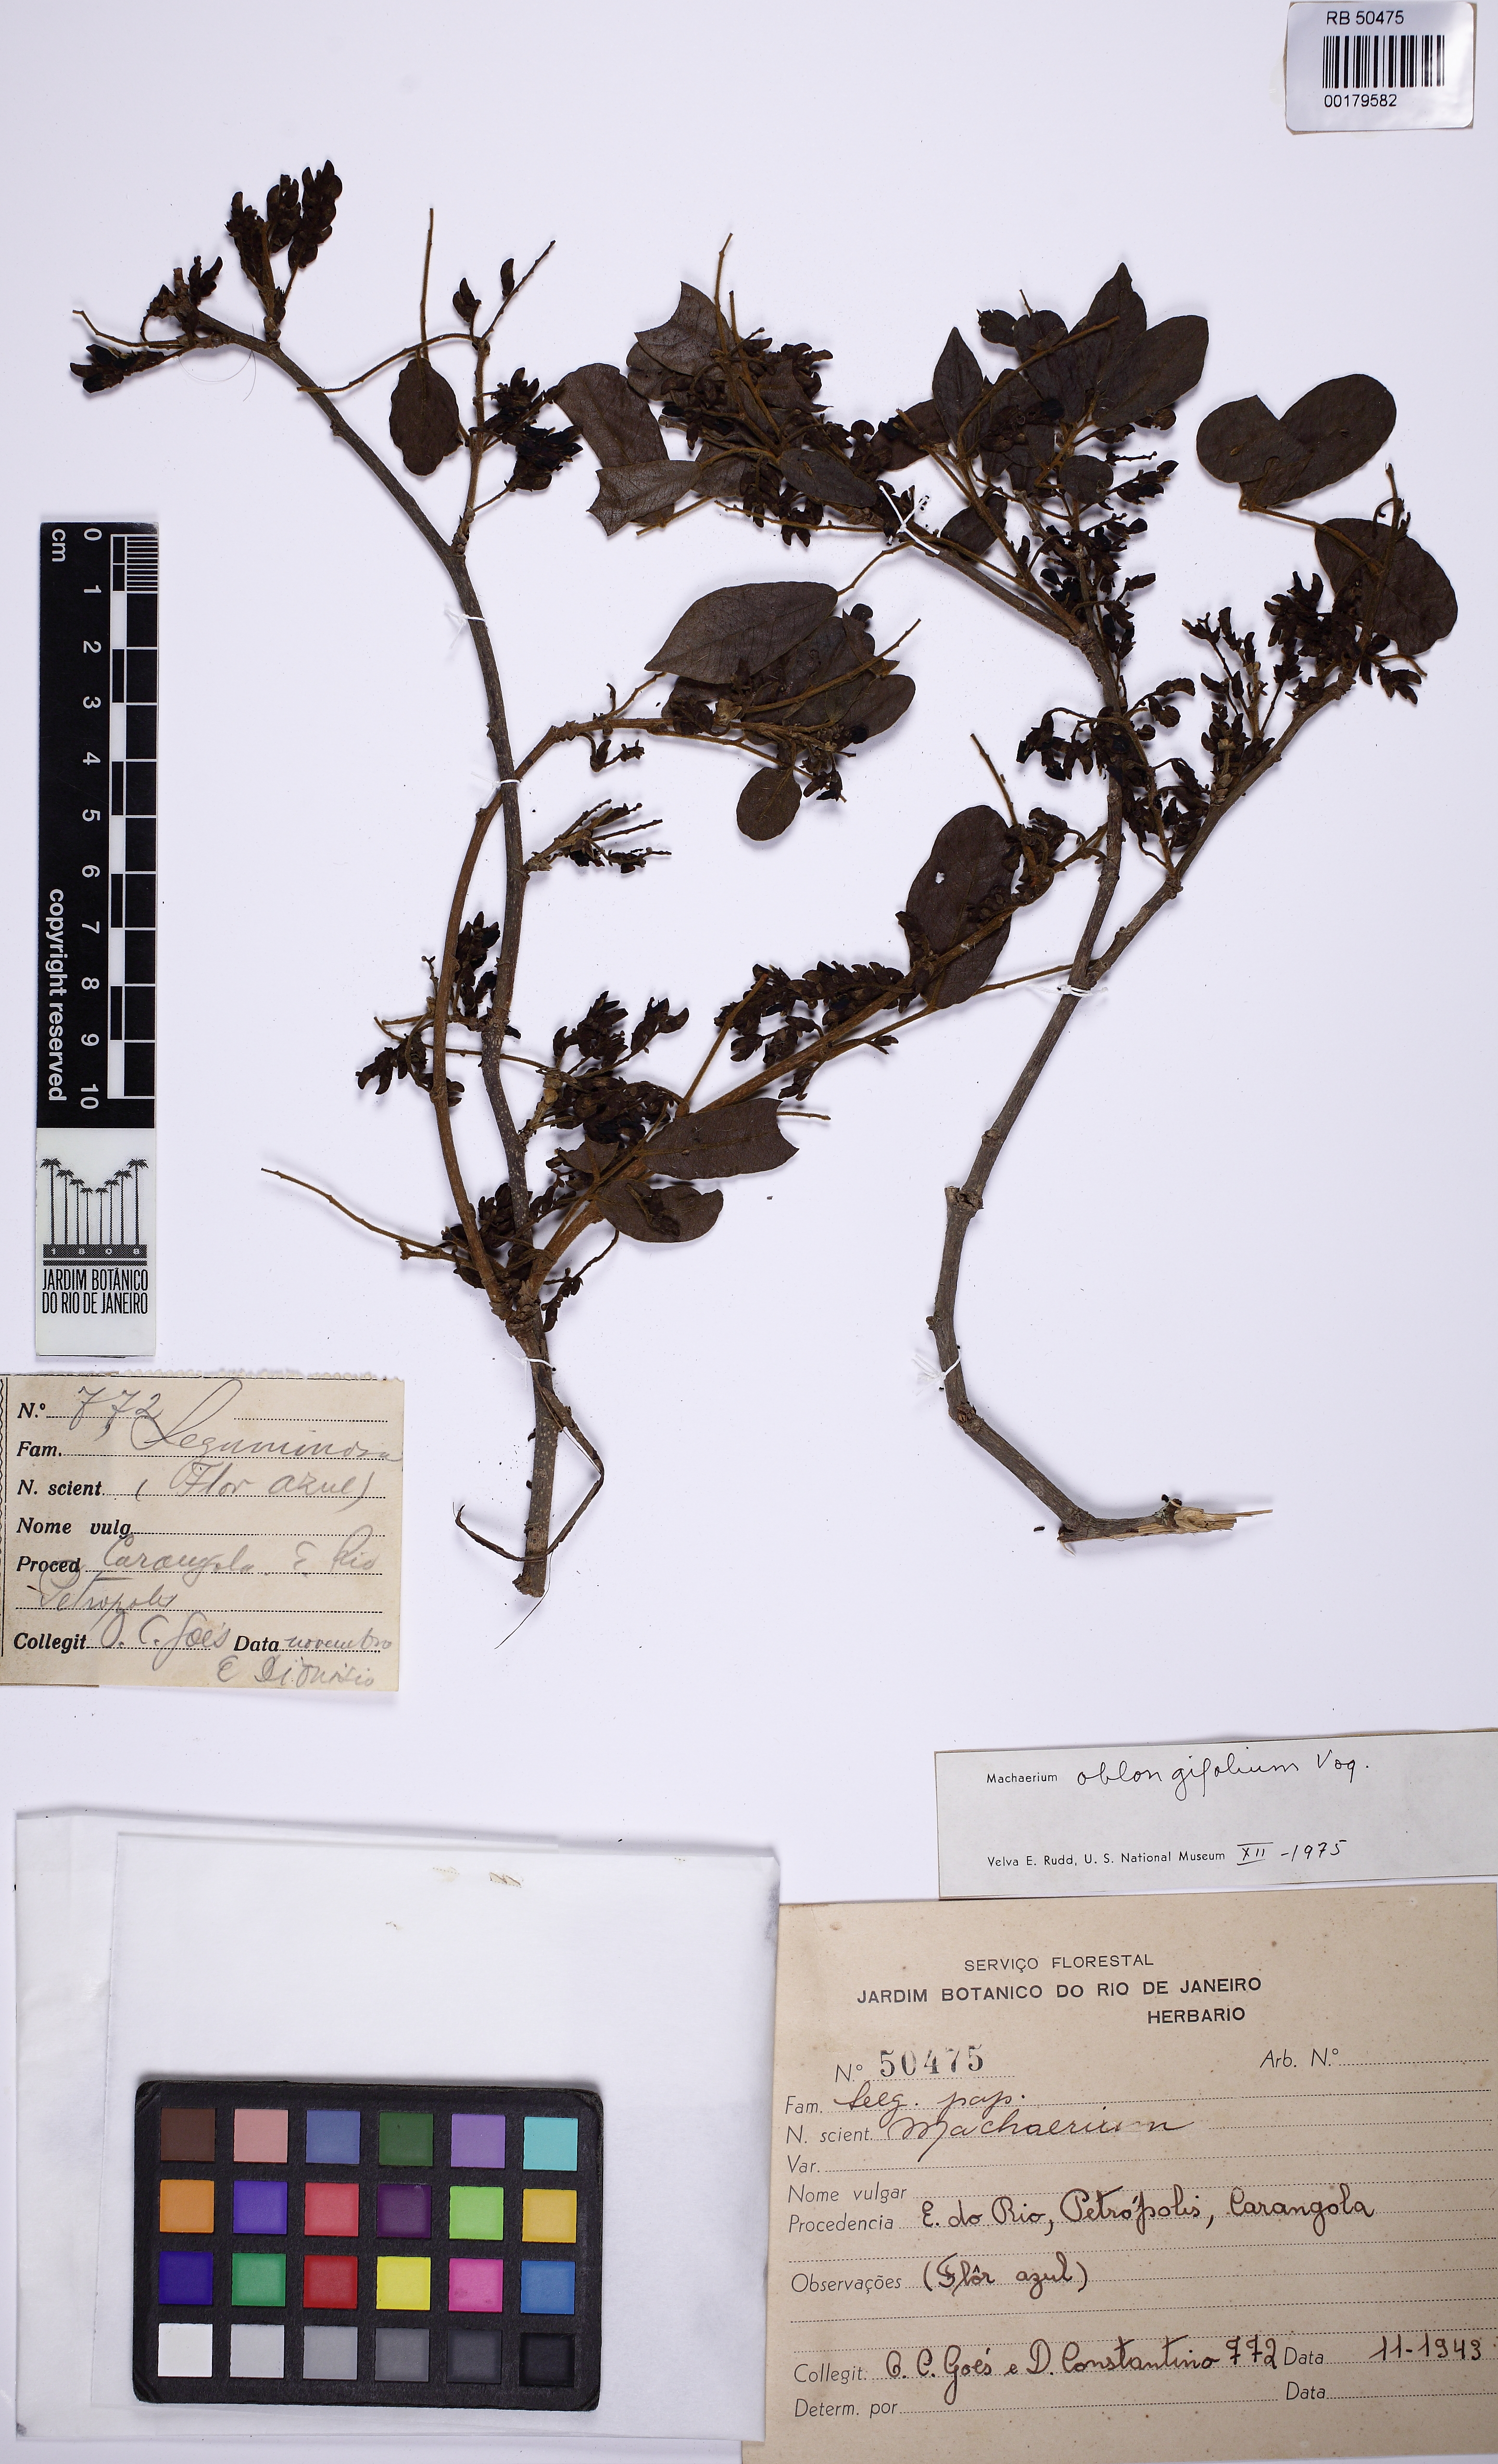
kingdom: Plantae
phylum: Tracheophyta
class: Magnoliopsida
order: Fabales
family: Fabaceae
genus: Machaerium
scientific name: Machaerium oblongifolium
